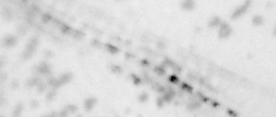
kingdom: Animalia
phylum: Chordata
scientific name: Chordata
